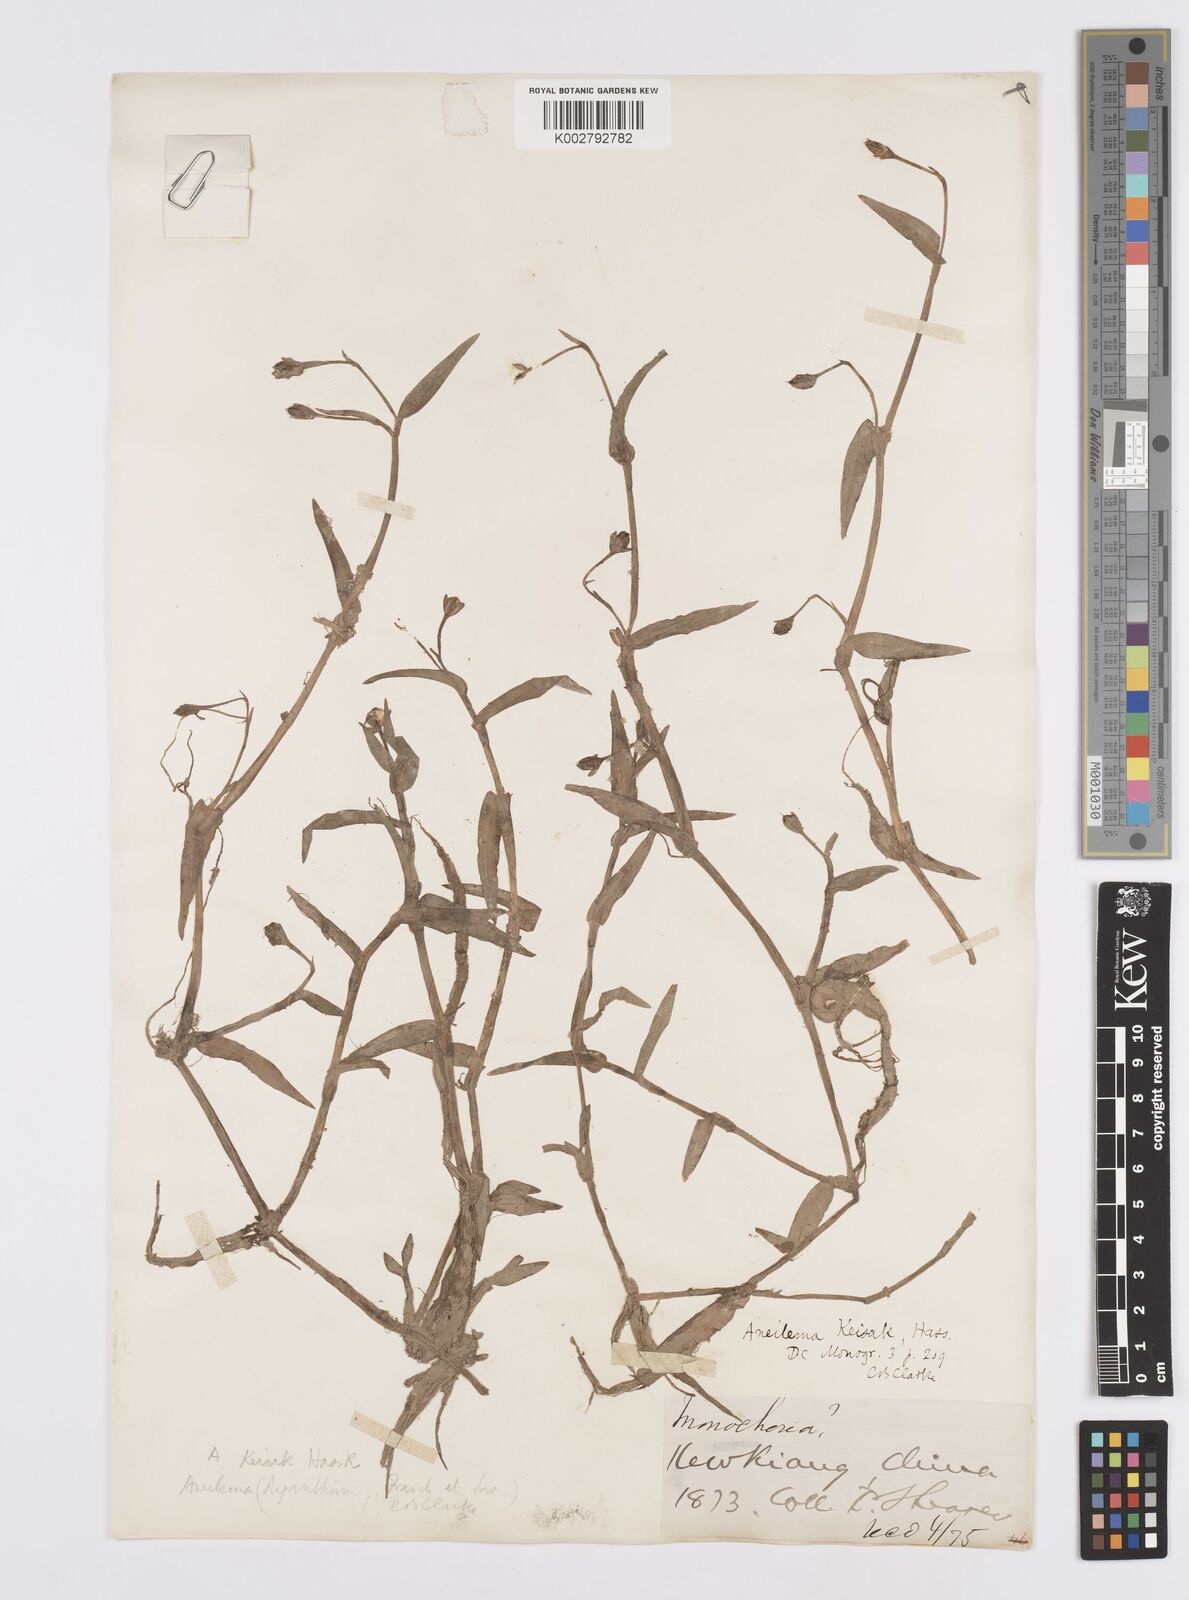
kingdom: Plantae
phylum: Tracheophyta
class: Liliopsida
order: Commelinales
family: Commelinaceae
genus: Murdannia
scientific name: Murdannia keisak
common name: Wartremoving herb
